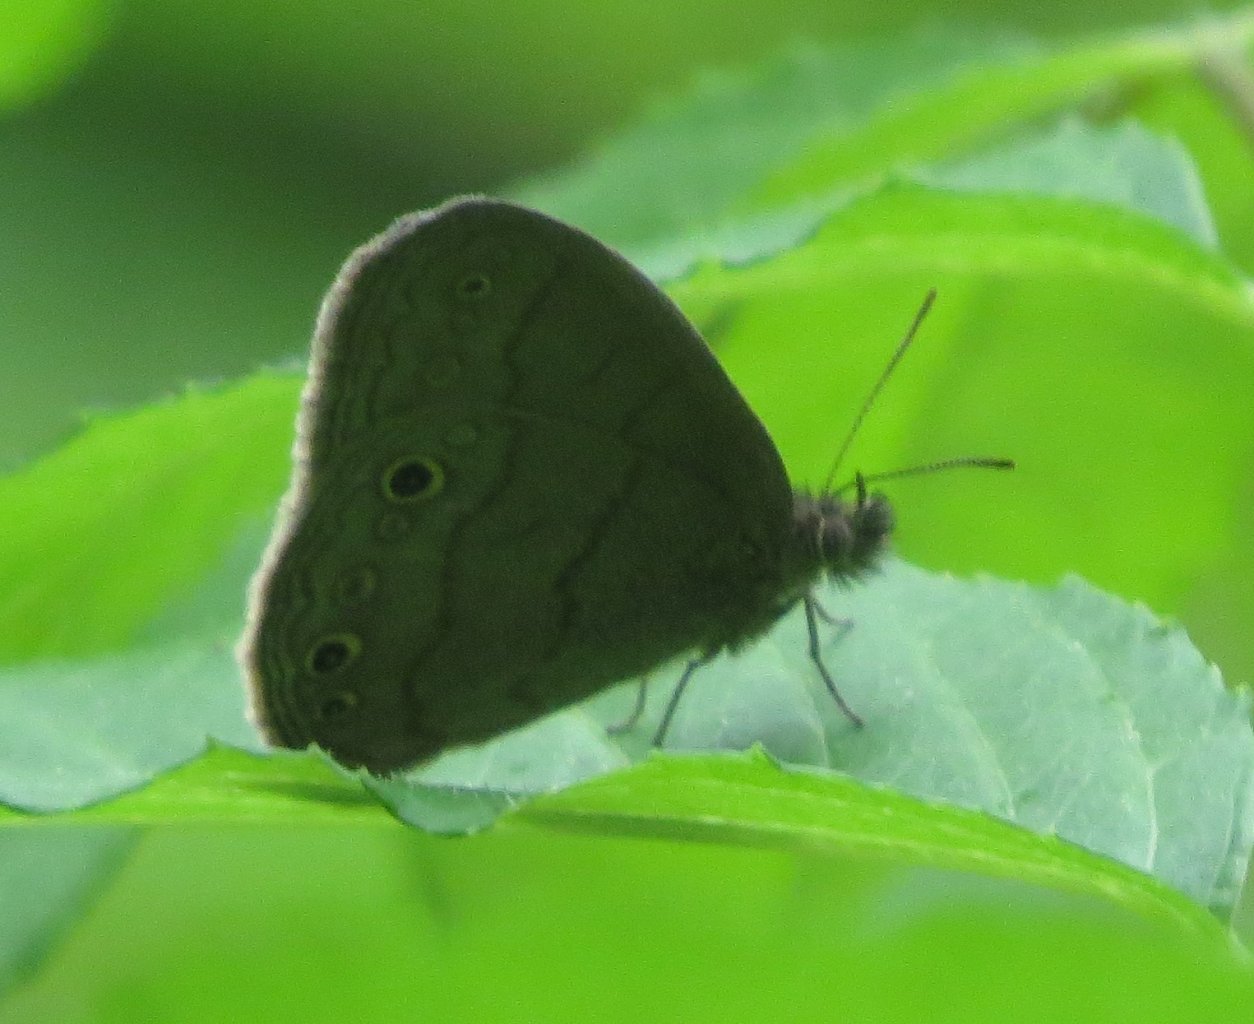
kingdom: Animalia
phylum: Arthropoda
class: Insecta
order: Lepidoptera
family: Nymphalidae
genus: Hermeuptychia
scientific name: Hermeuptychia hermes
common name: Carolina Satyr
